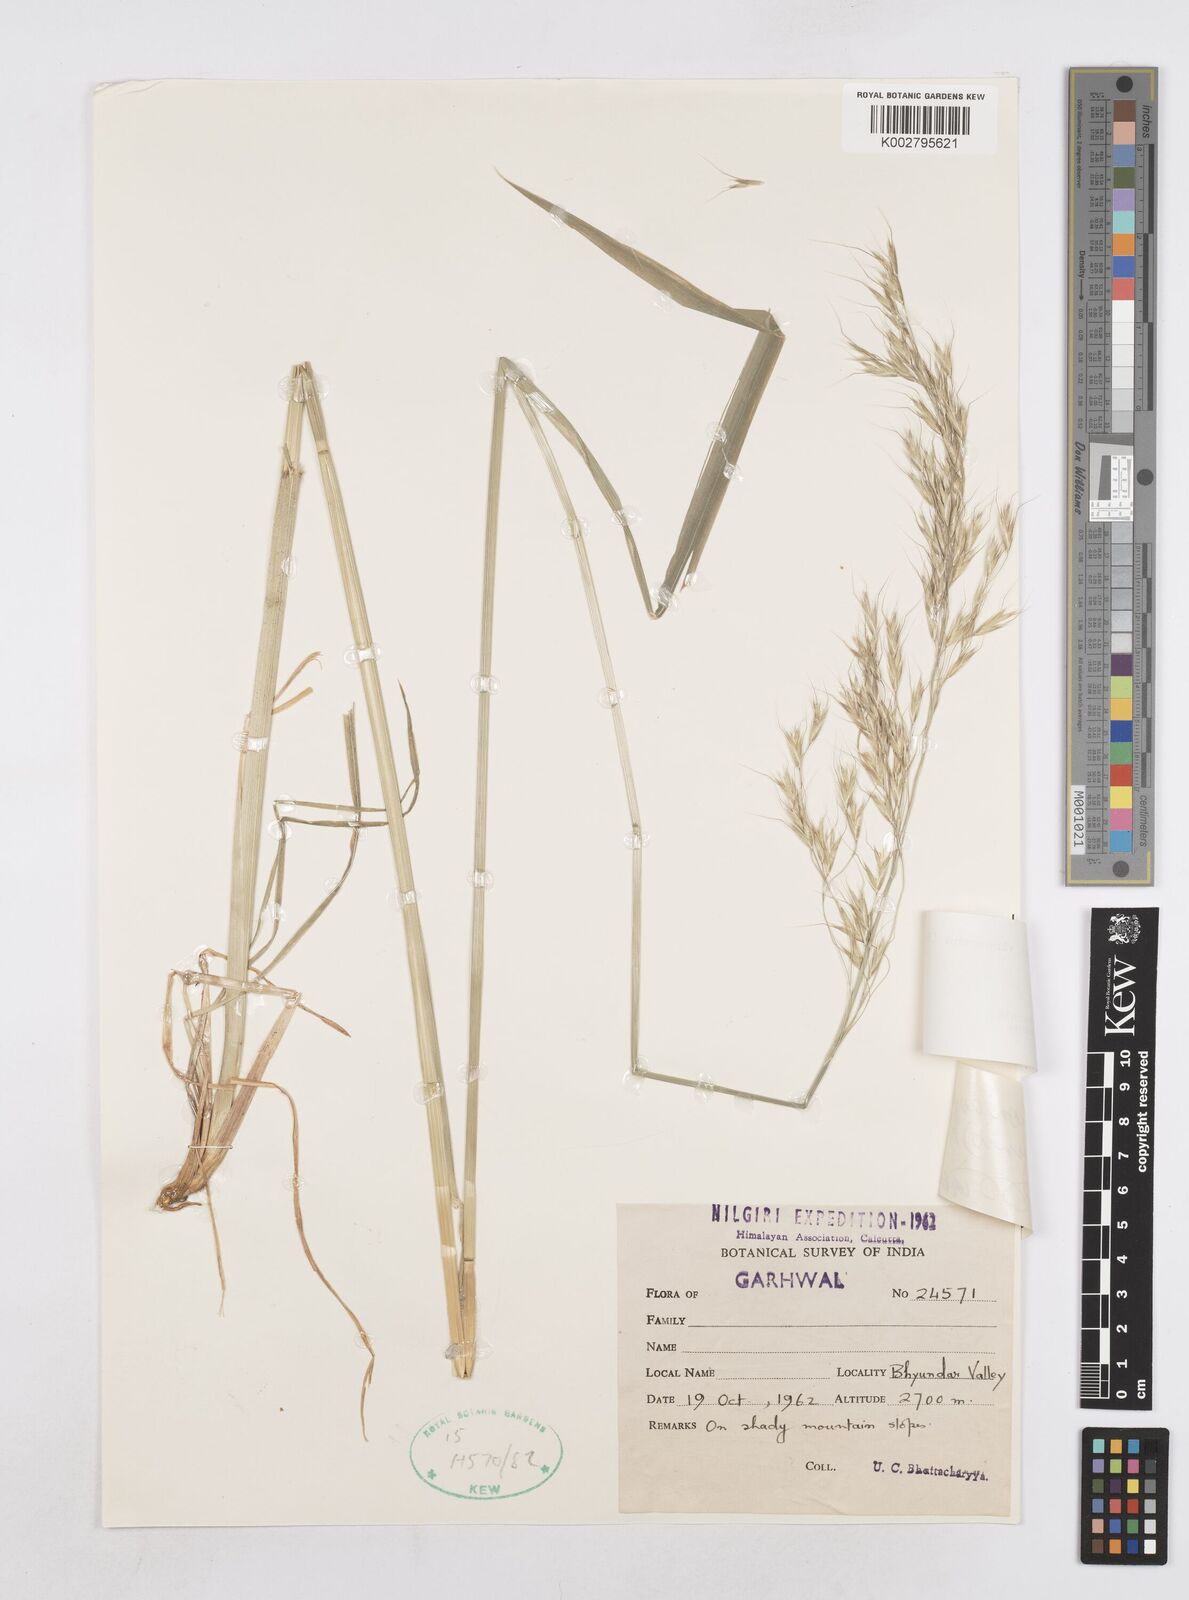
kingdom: Plantae
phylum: Tracheophyta
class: Liliopsida
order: Poales
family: Poaceae
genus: Helictotrichon
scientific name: Helictotrichon
